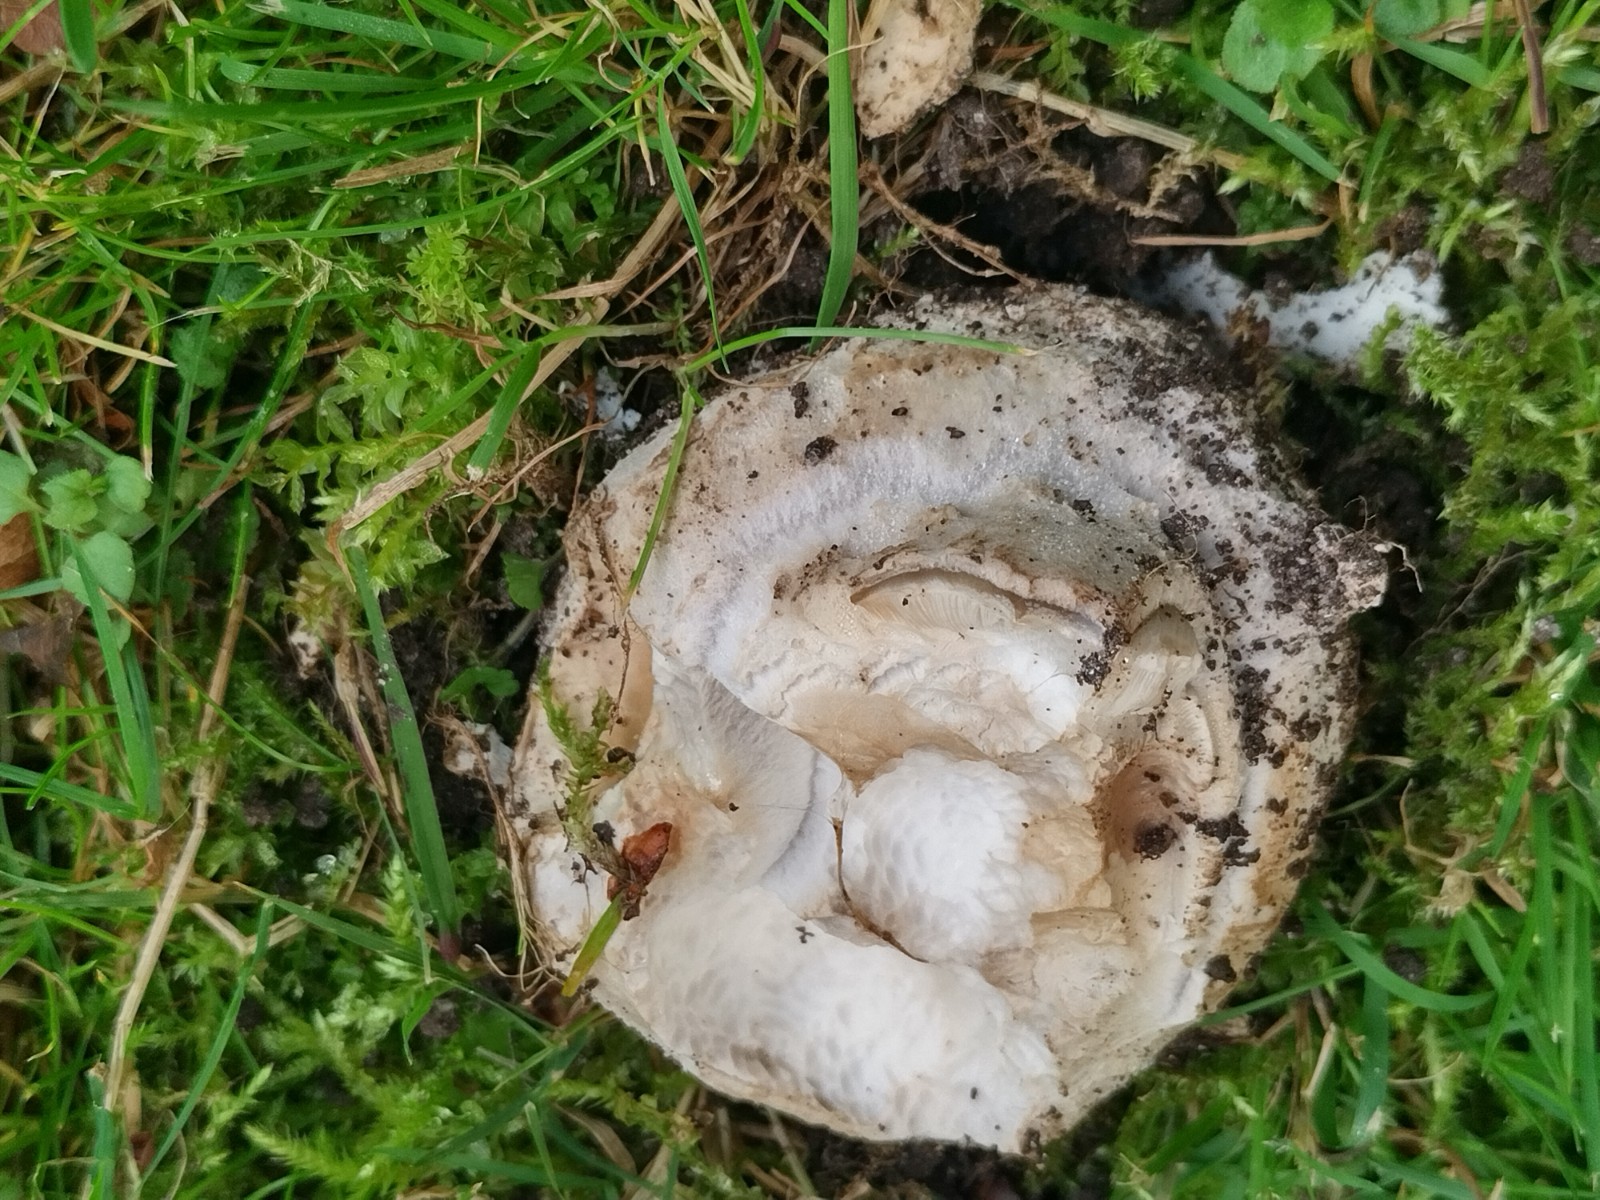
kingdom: Fungi
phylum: Basidiomycota
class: Agaricomycetes
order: Agaricales
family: Amanitaceae
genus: Amanita
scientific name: Amanita
